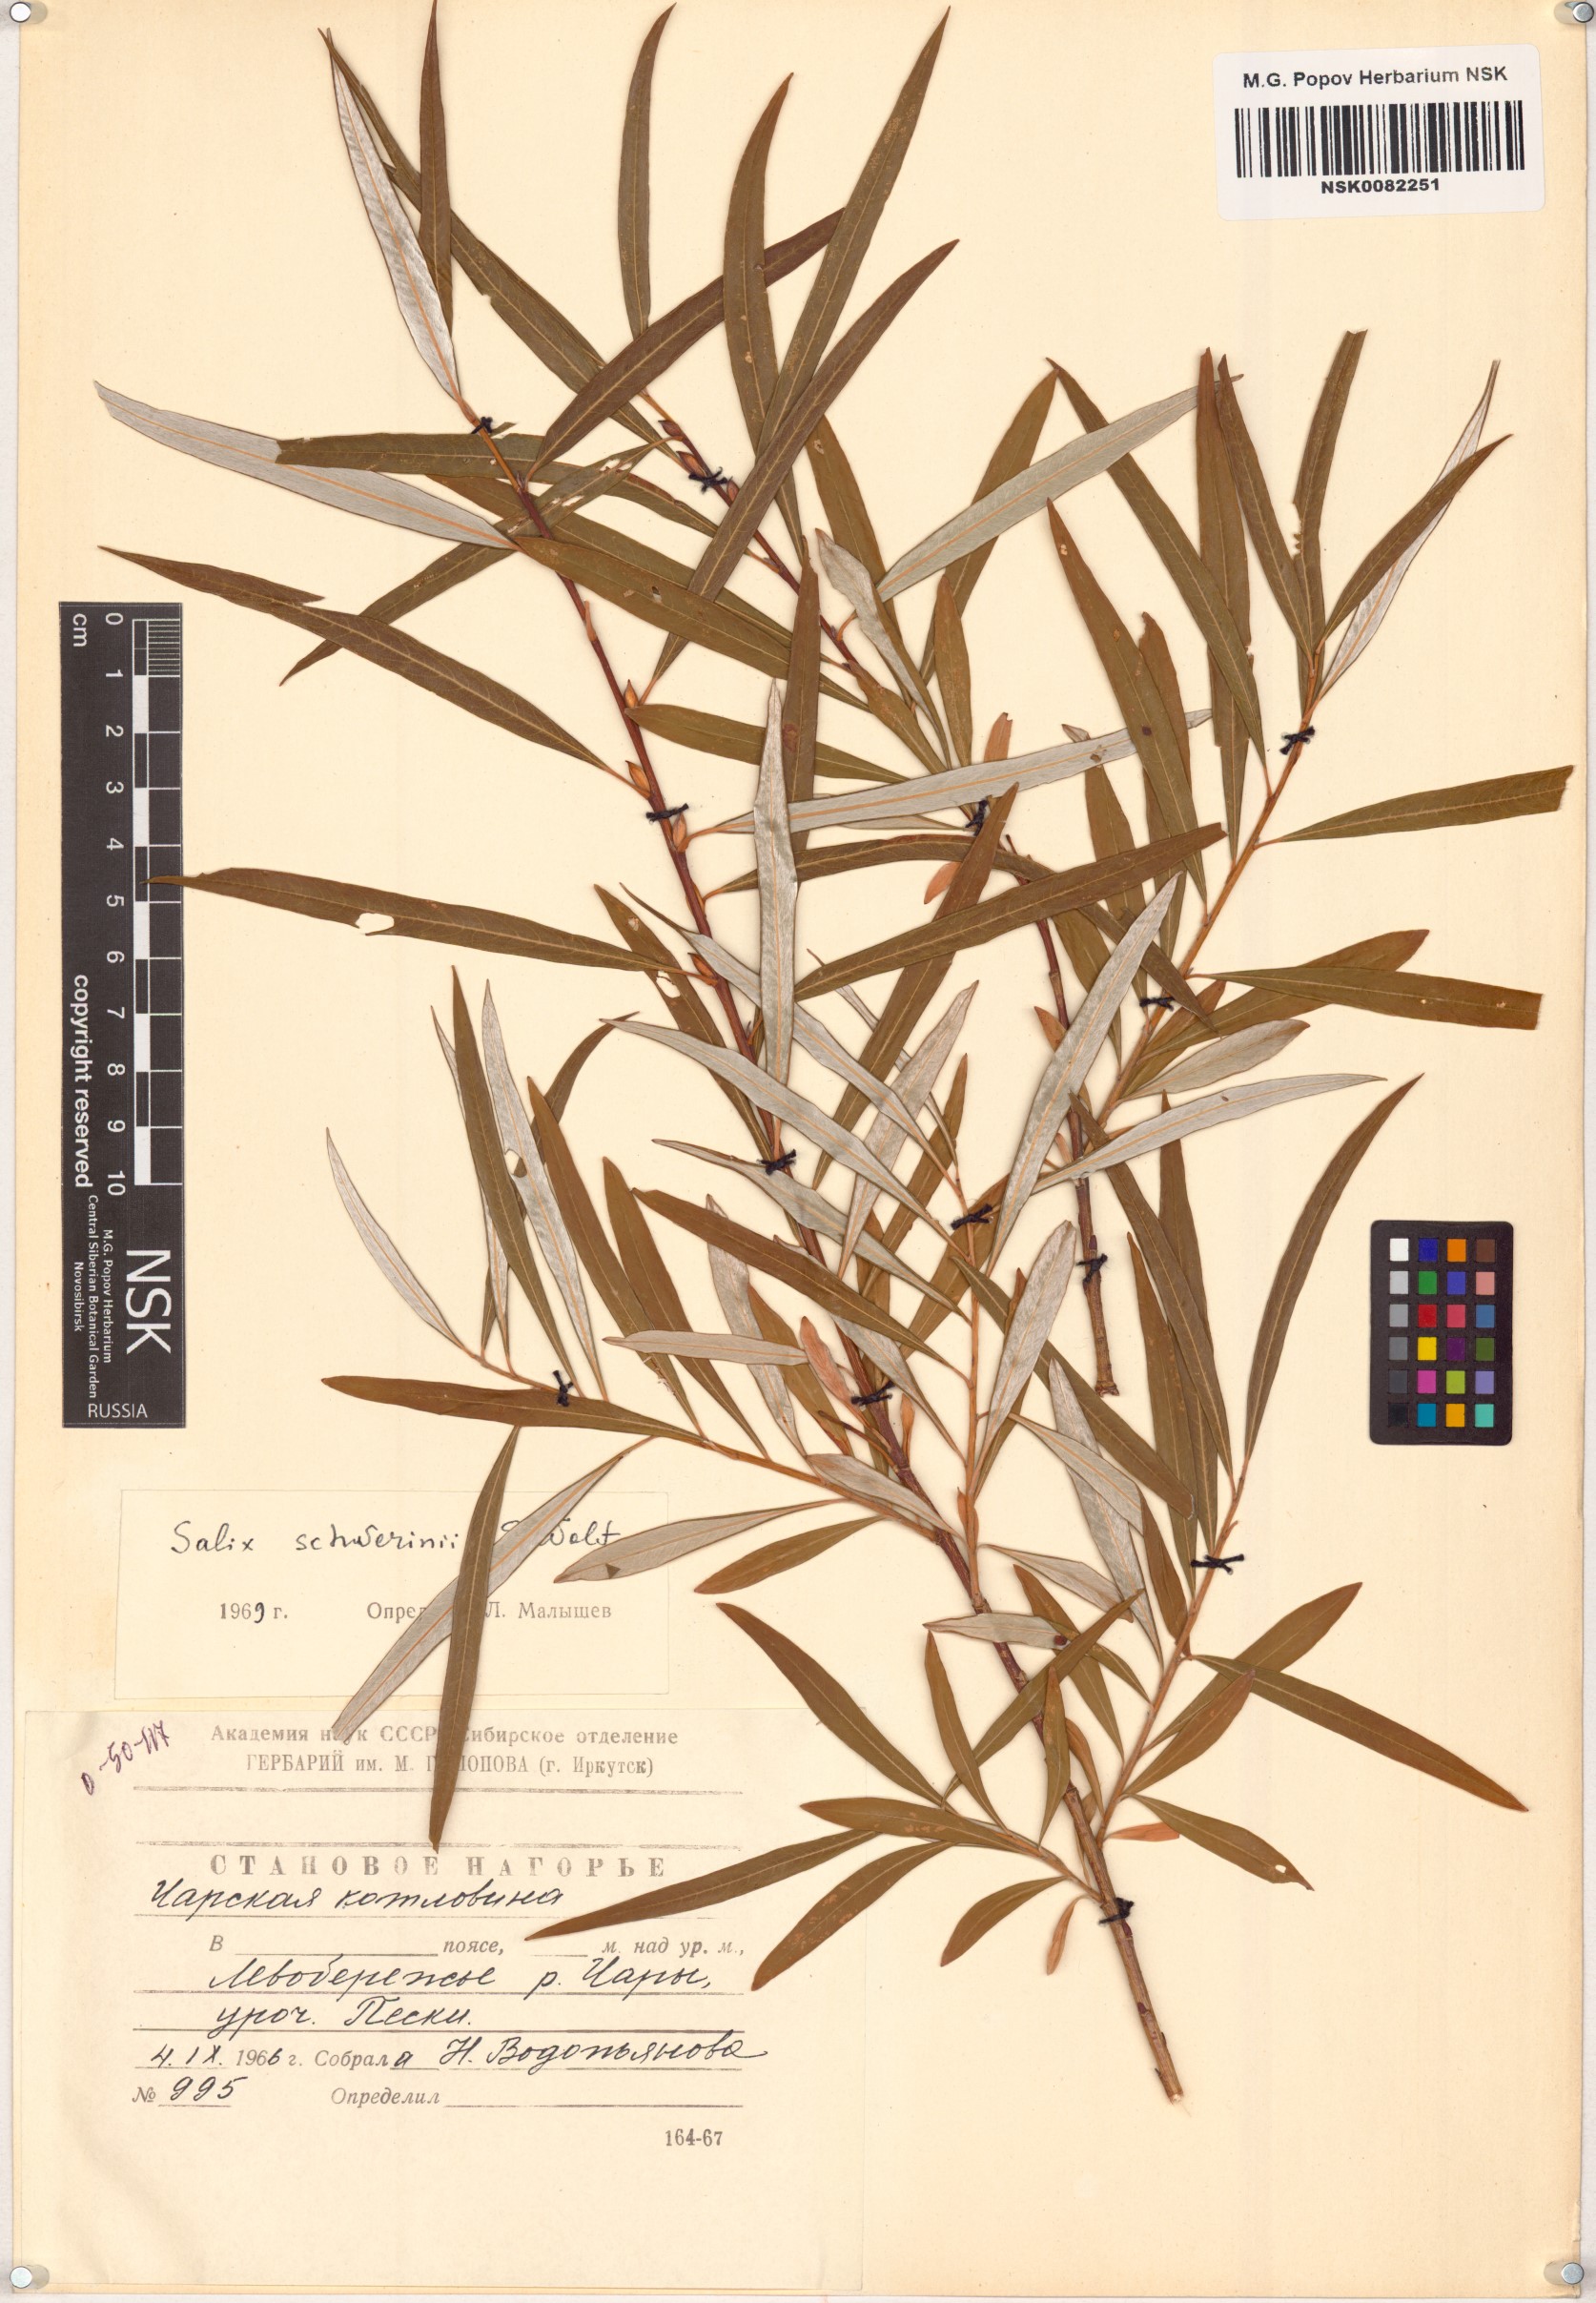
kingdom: Plantae
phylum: Tracheophyta
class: Magnoliopsida
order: Malpighiales
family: Salicaceae
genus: Salix
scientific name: Salix schwerinii
